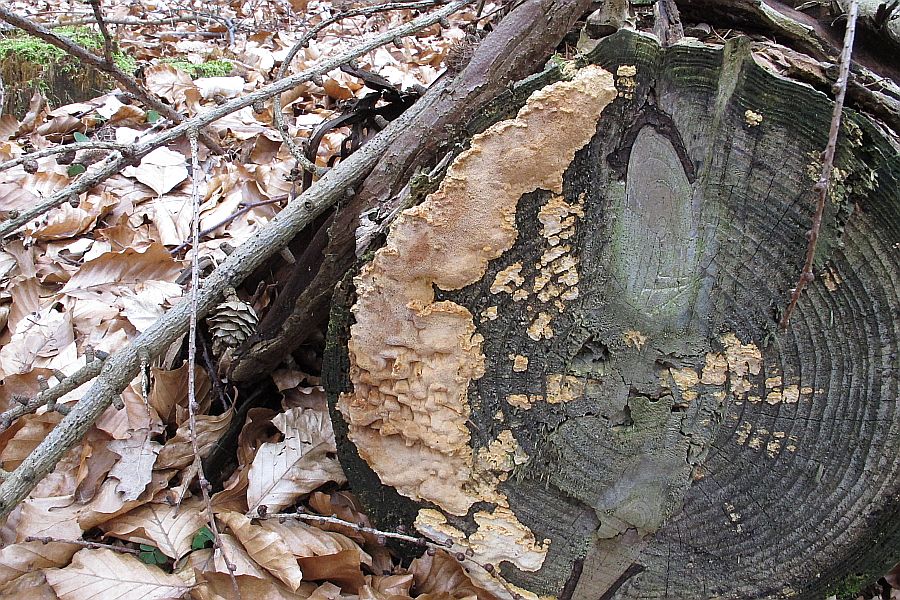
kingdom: Fungi
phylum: Basidiomycota
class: Agaricomycetes
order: Polyporales
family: Fomitopsidaceae
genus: Neoantrodia
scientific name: Neoantrodia serialis
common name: række-sejporesvamp
